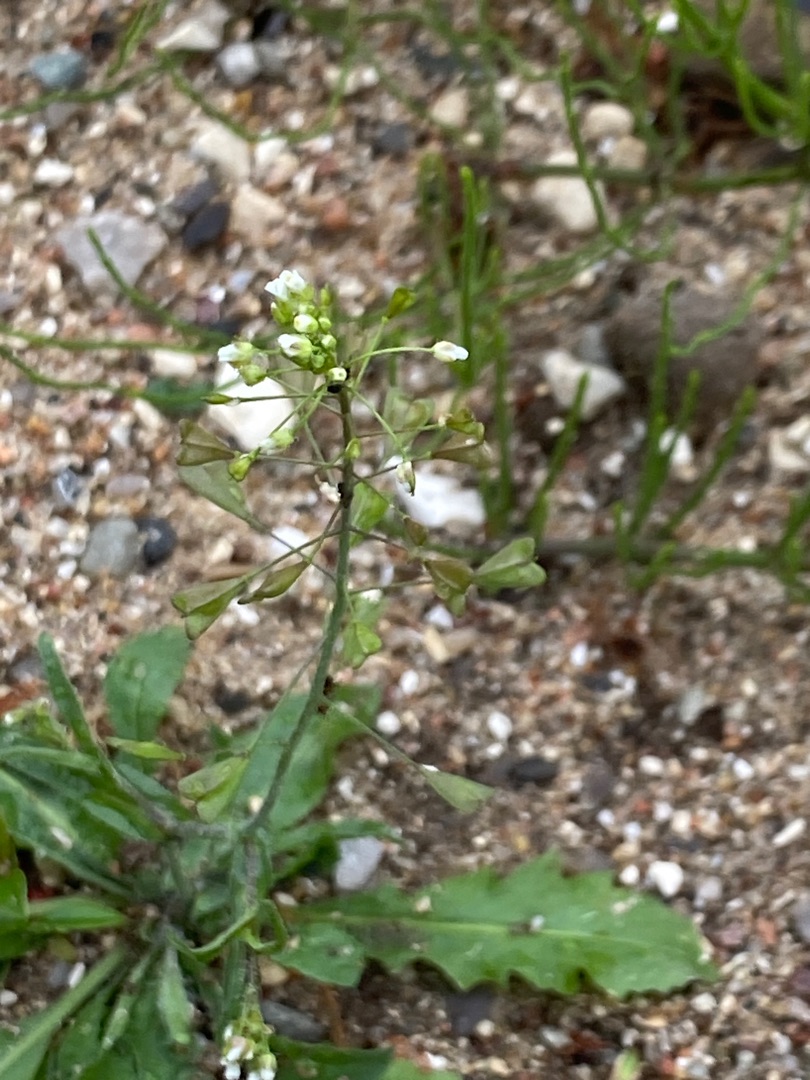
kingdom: Plantae
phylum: Tracheophyta
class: Magnoliopsida
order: Brassicales
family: Brassicaceae
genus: Capsella
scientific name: Capsella bursa-pastoris
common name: Hyrdetaske
